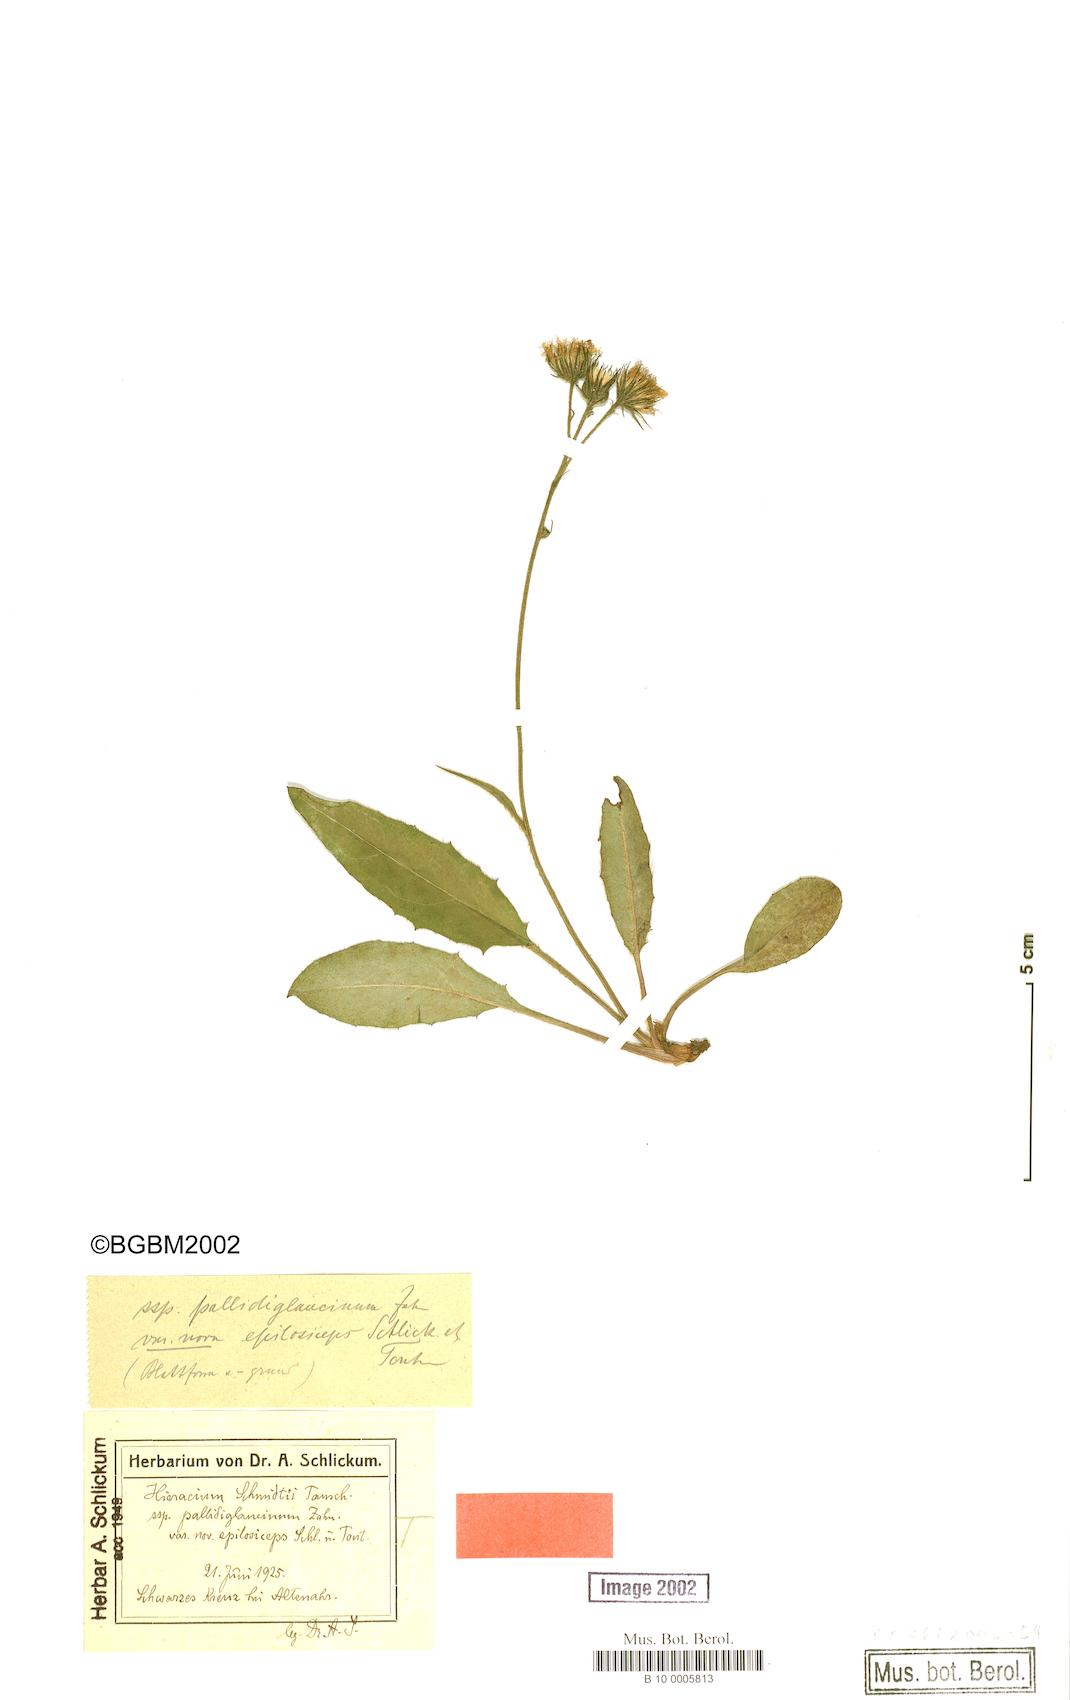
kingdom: Plantae
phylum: Tracheophyta
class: Magnoliopsida
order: Asterales
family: Asteraceae
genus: Hieracium
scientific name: Hieracium pallidum
